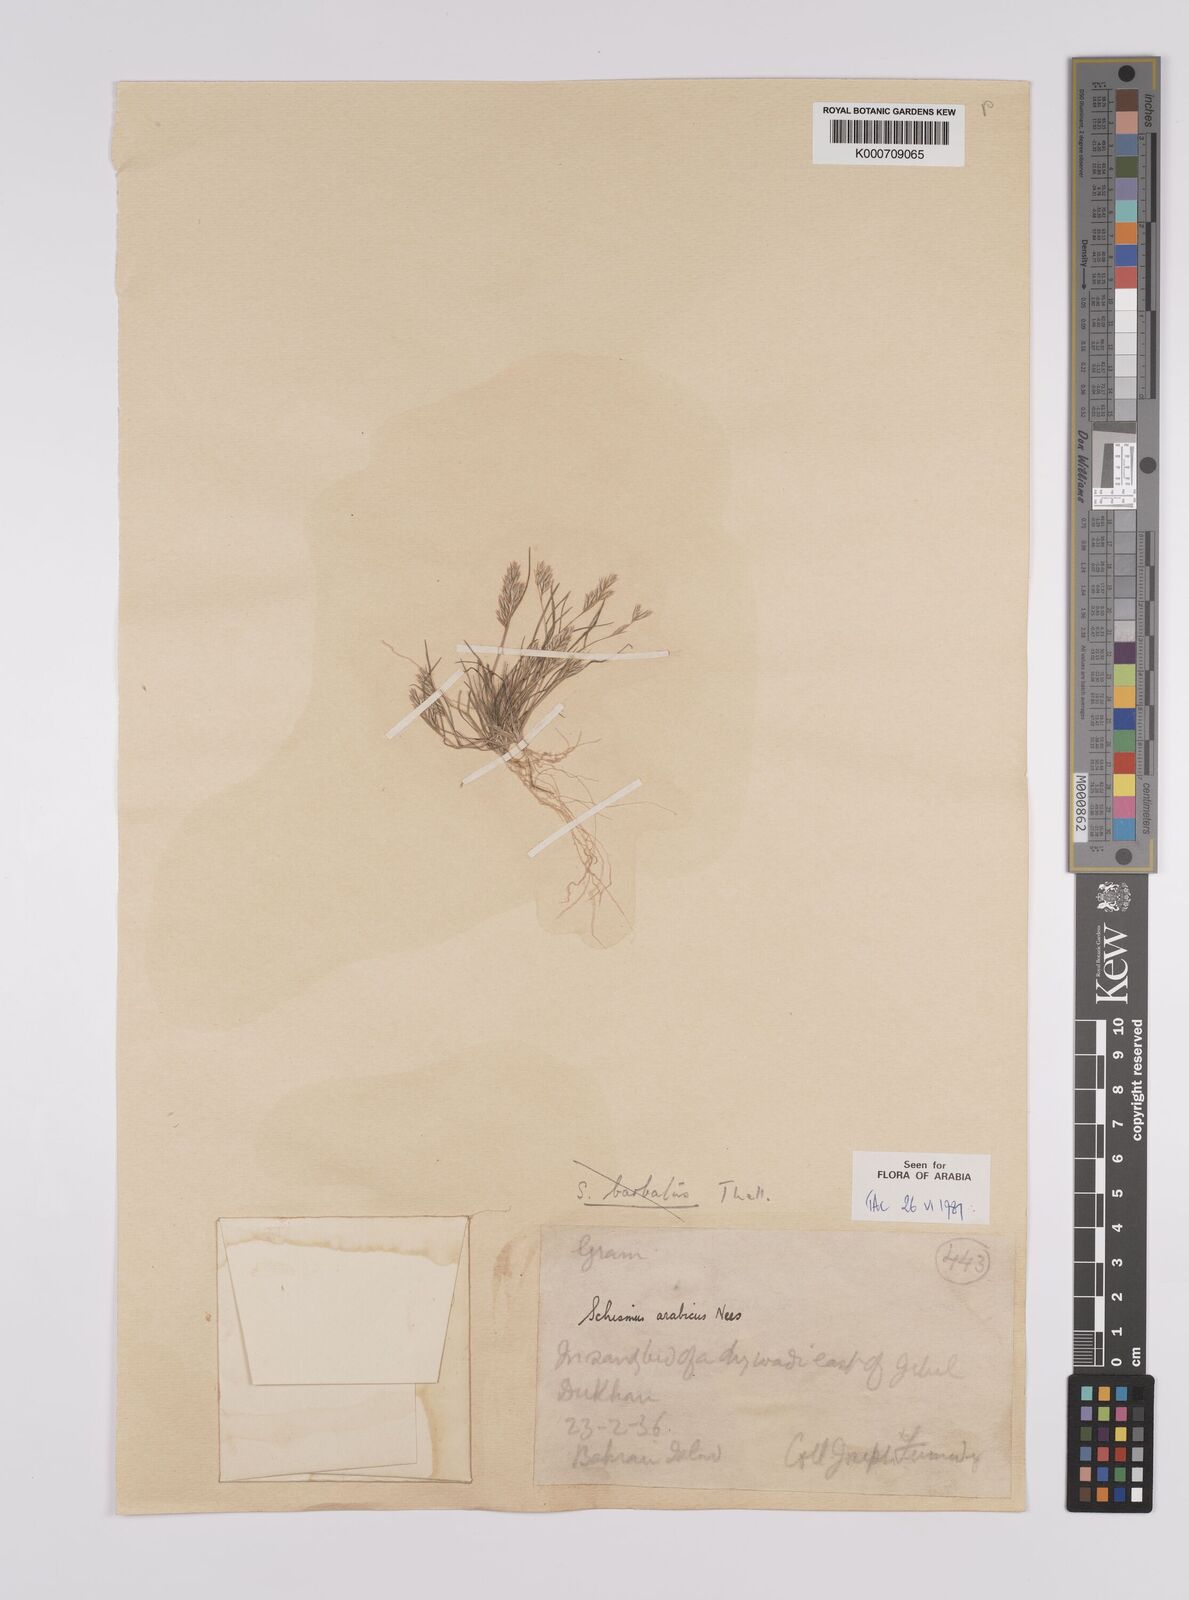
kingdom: Plantae
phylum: Tracheophyta
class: Liliopsida
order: Poales
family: Poaceae
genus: Schismus
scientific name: Schismus arabicus
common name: Arabian schismus
